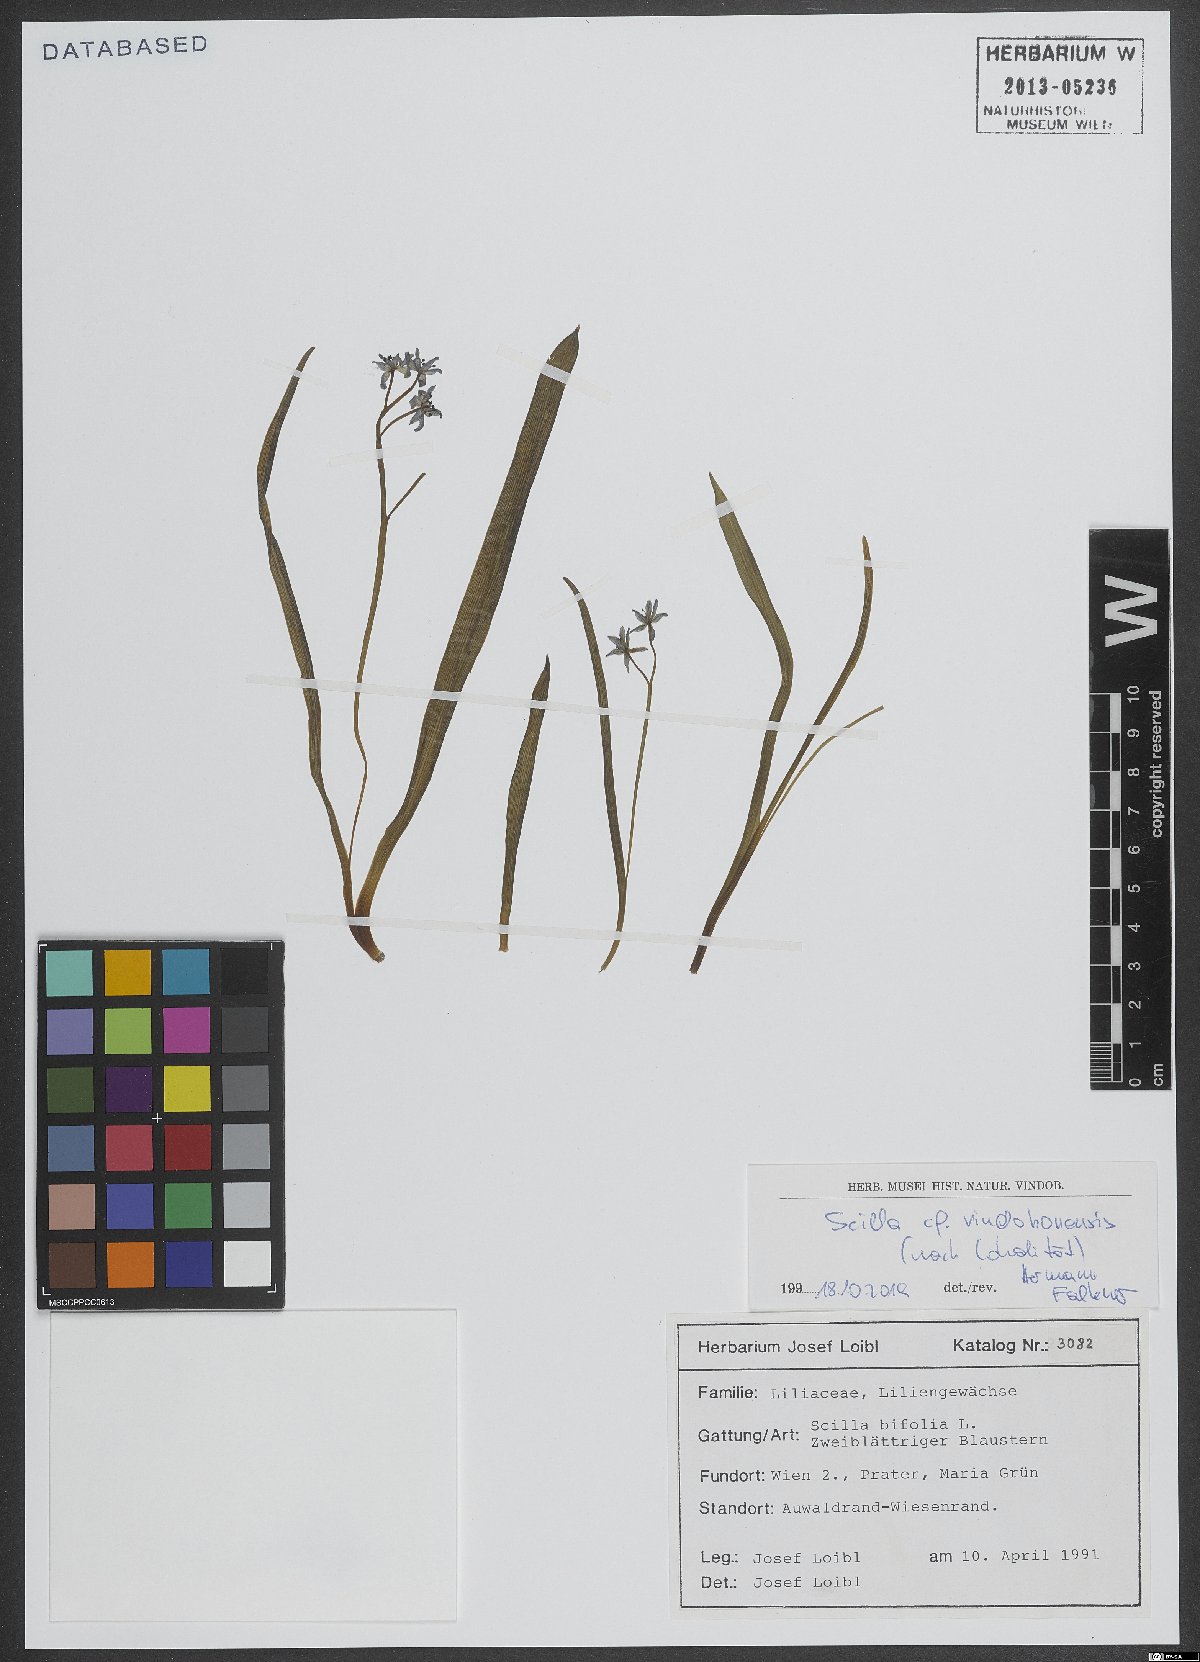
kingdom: Plantae
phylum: Tracheophyta
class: Liliopsida
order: Asparagales
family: Asparagaceae
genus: Scilla
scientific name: Scilla vindobonensis
